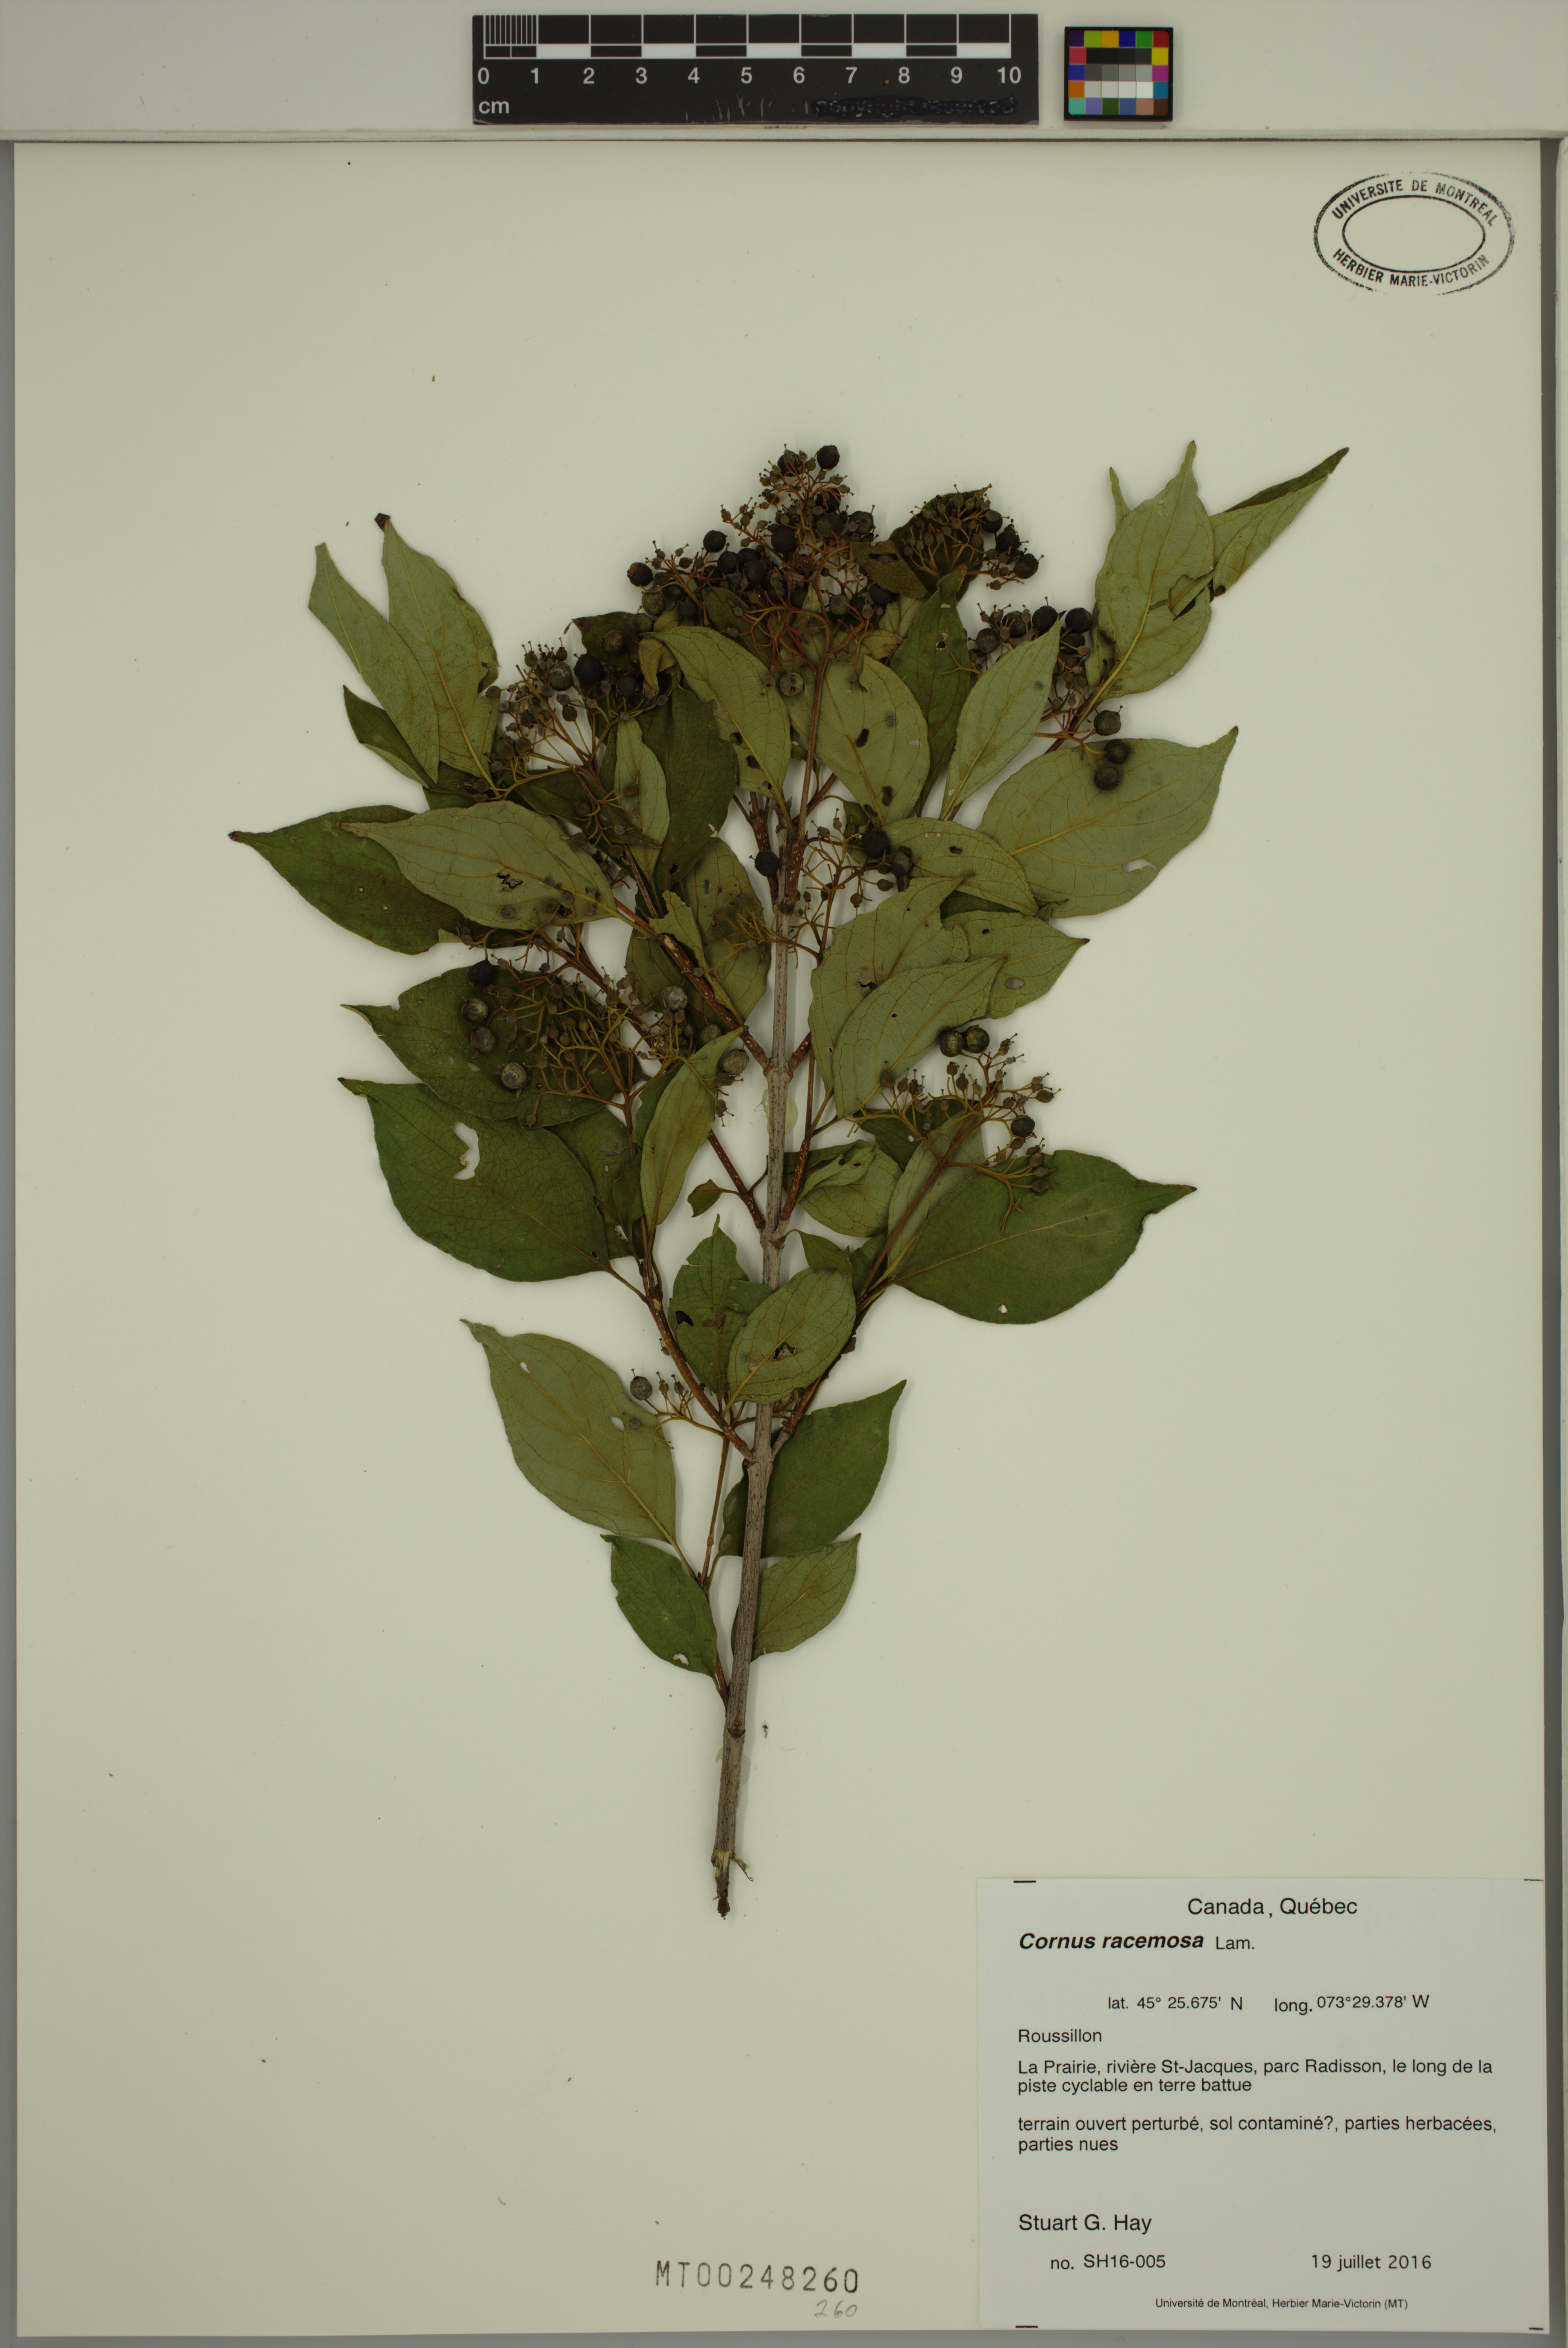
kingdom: Plantae
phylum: Tracheophyta
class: Magnoliopsida
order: Cornales
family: Cornaceae
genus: Cornus
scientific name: Cornus racemosa
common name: Panicled dogwood
